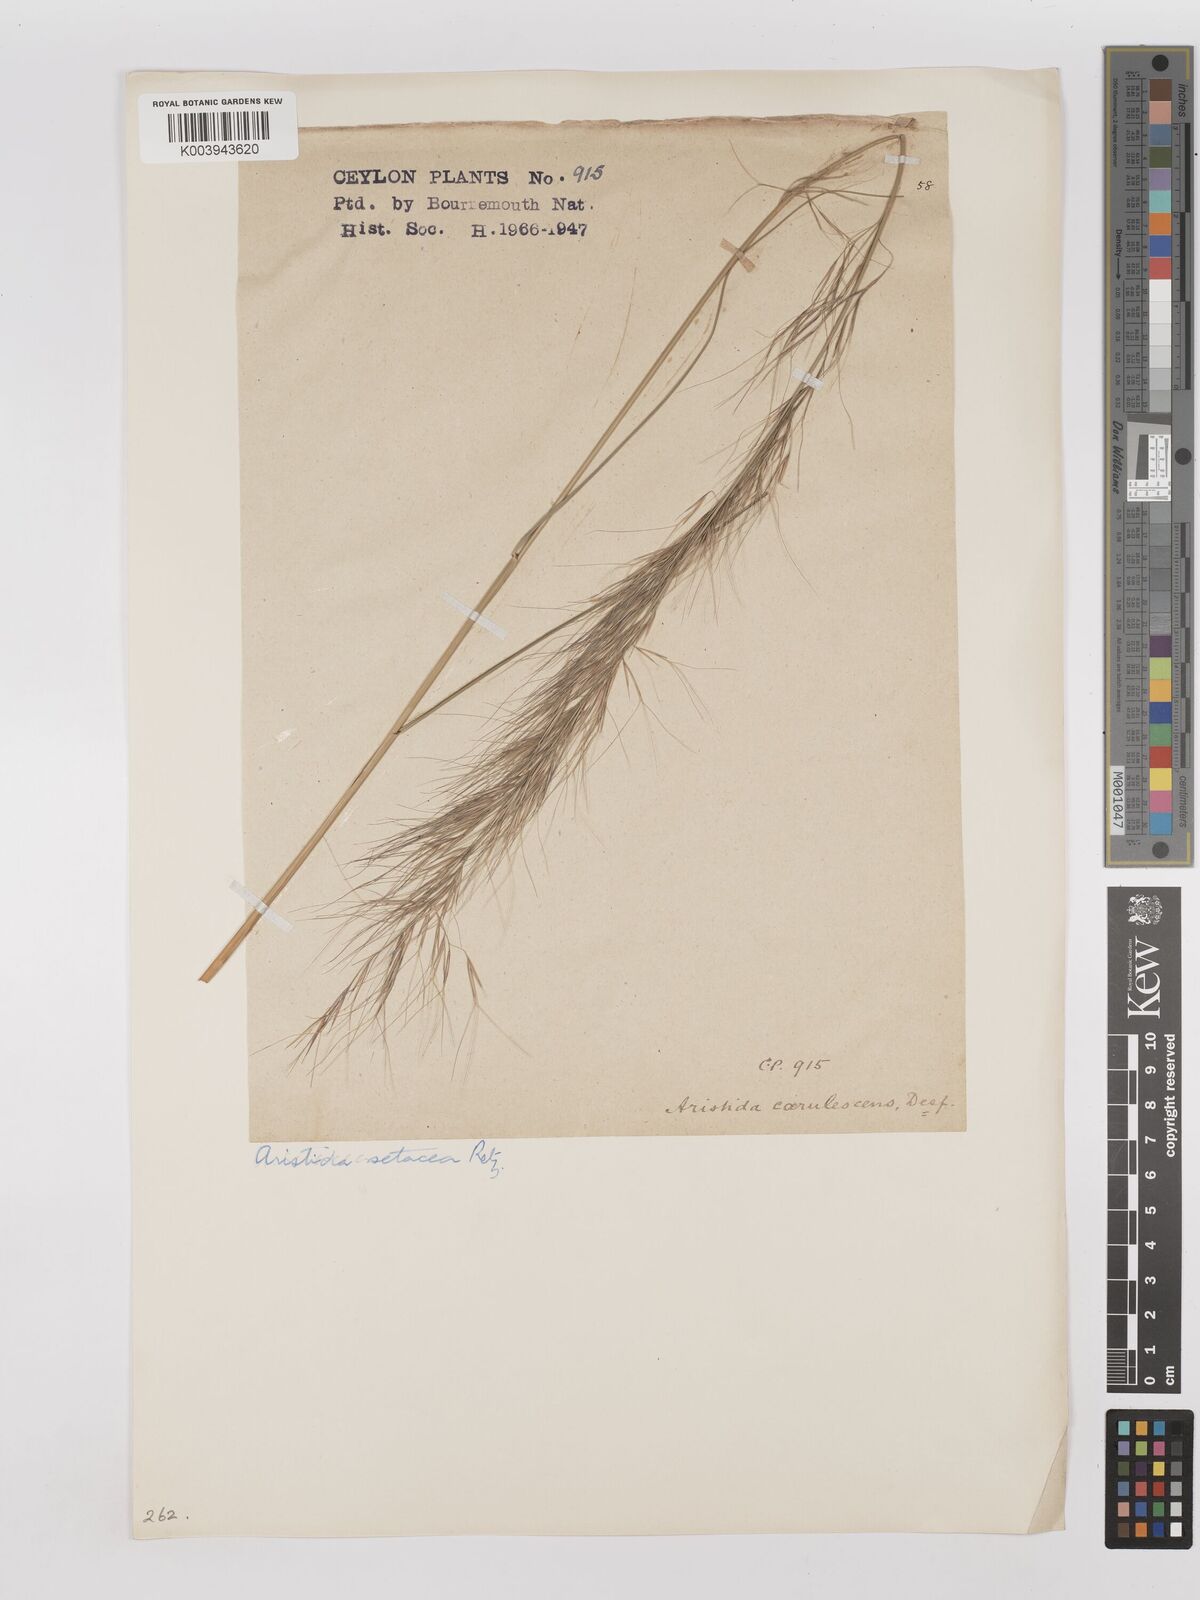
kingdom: Plantae
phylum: Tracheophyta
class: Liliopsida
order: Poales
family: Poaceae
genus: Aristida
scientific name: Aristida setacea
